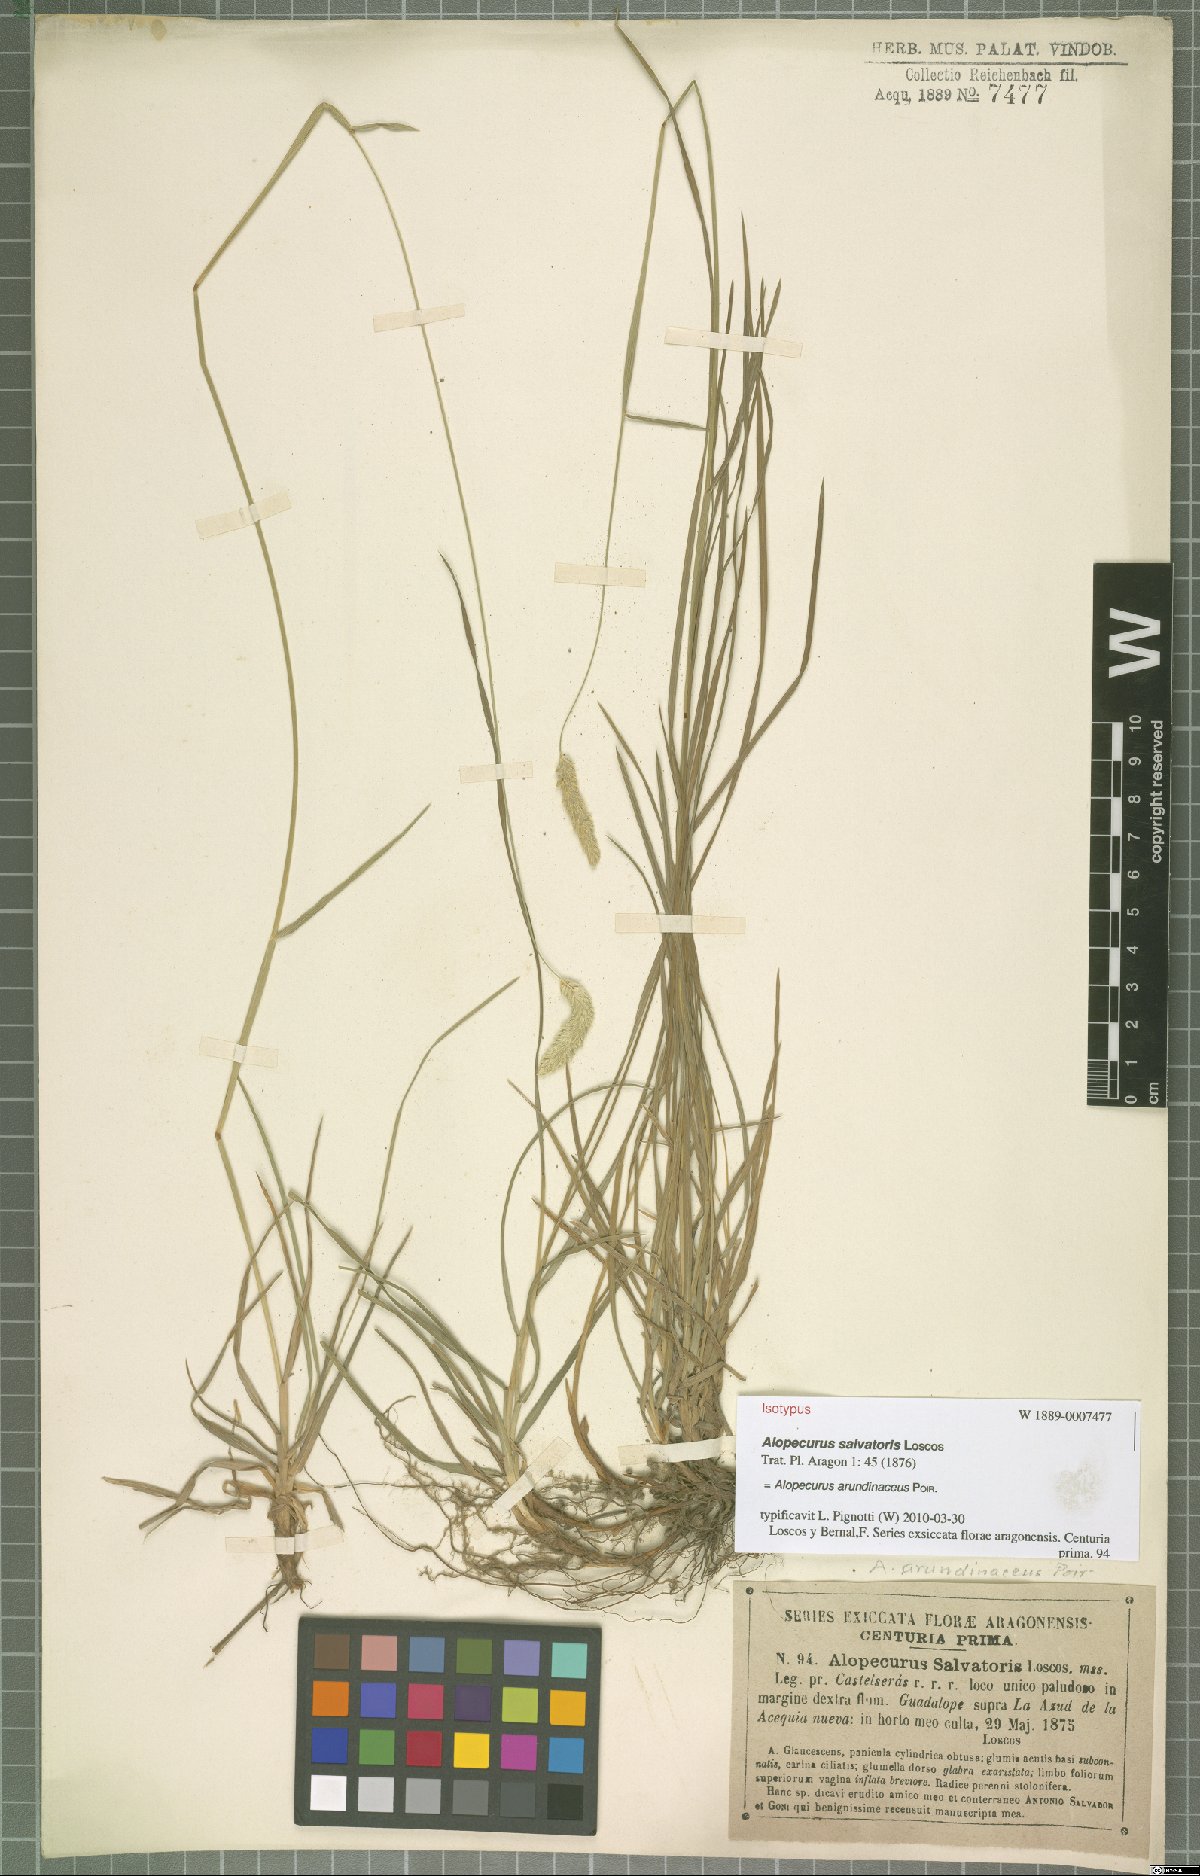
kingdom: Plantae
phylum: Tracheophyta
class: Liliopsida
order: Poales
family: Poaceae
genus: Alopecurus
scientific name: Alopecurus arundinaceus
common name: Creeping meadow foxtail
